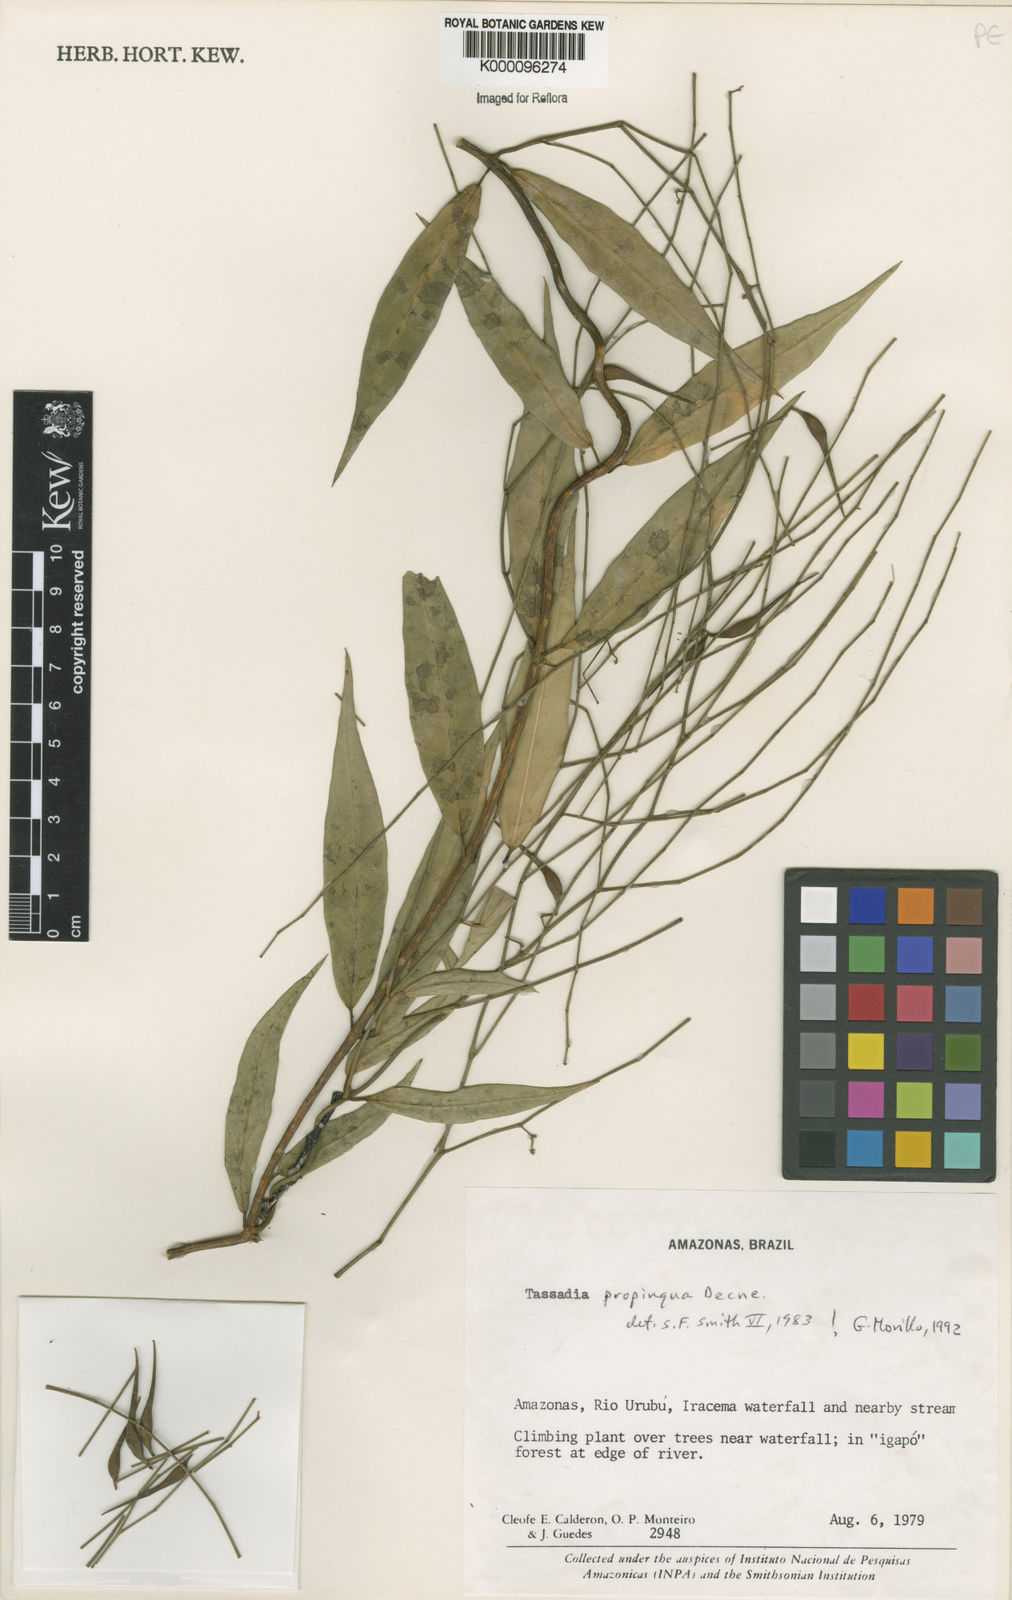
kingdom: Plantae
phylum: Tracheophyta
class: Magnoliopsida
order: Gentianales
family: Apocynaceae
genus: Tassadia
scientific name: Tassadia propinqua
